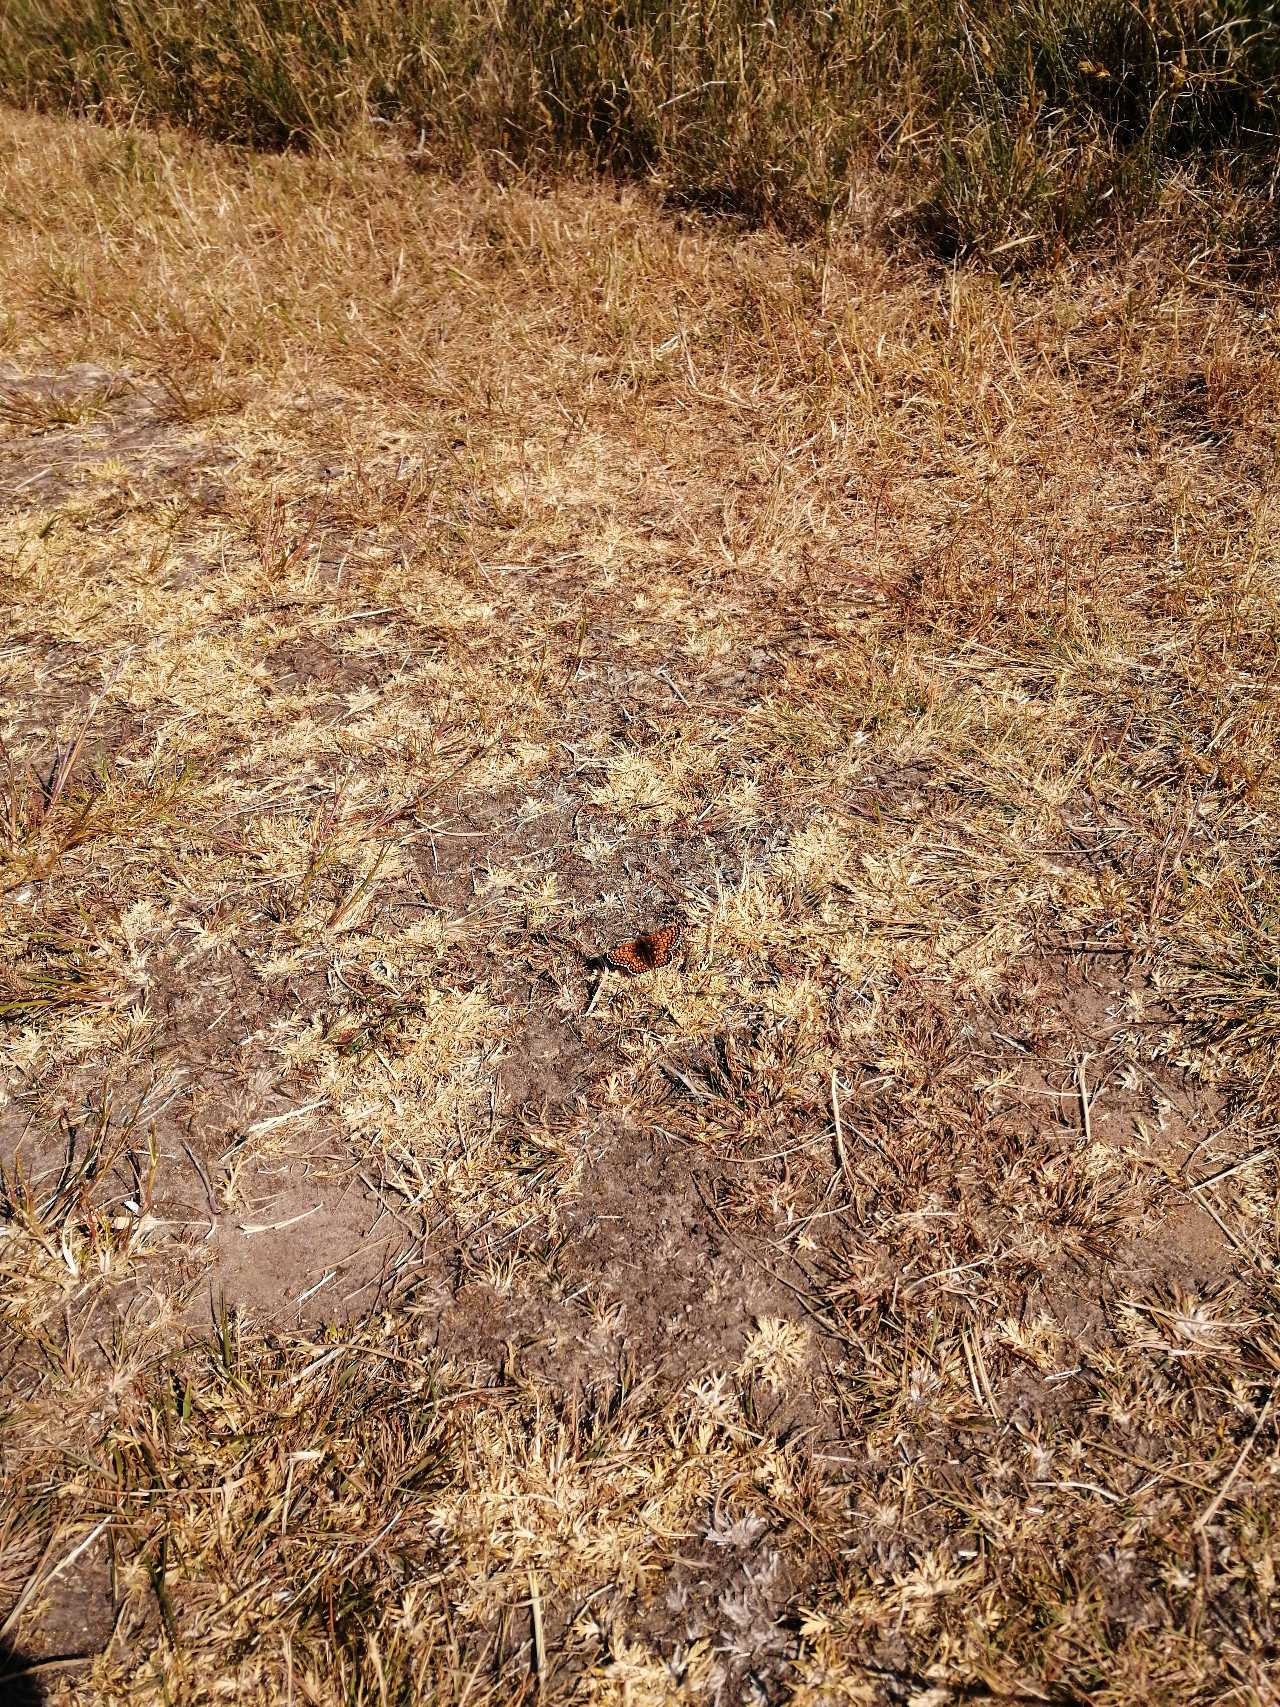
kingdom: Animalia
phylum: Arthropoda
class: Insecta
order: Lepidoptera
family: Nymphalidae
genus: Melitaea
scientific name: Melitaea cinxia
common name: Okkergul pletvinge
